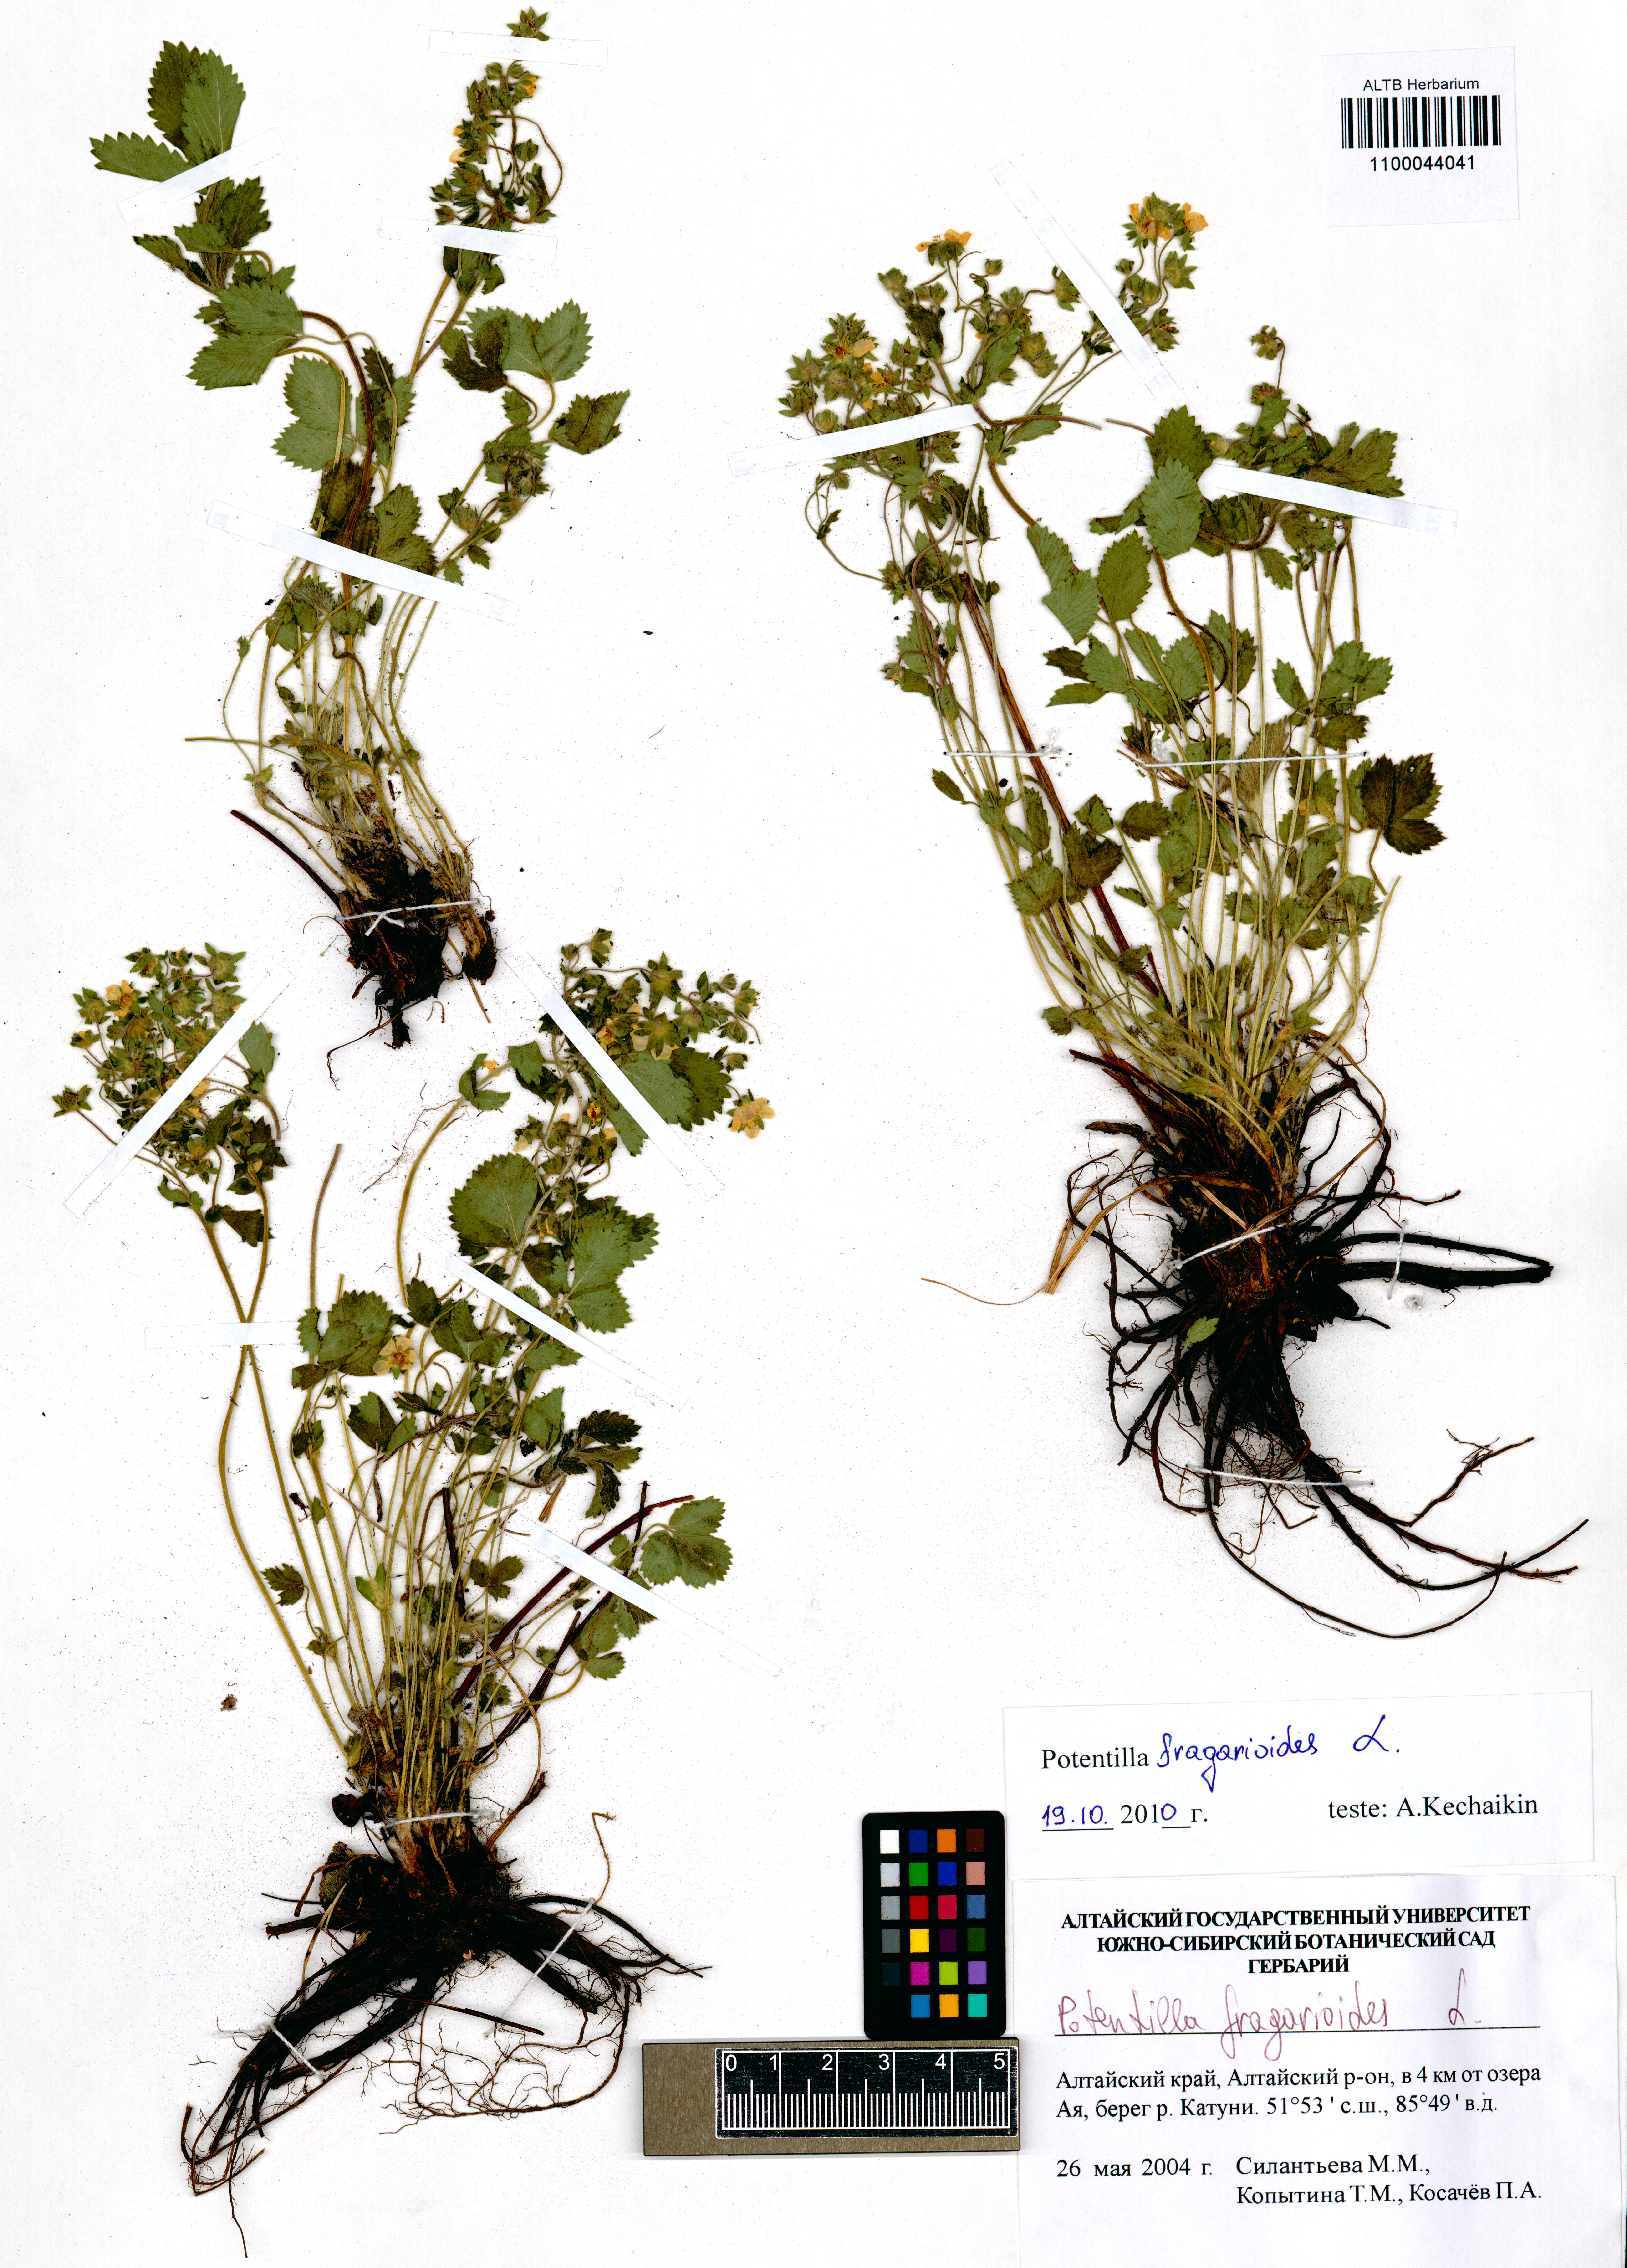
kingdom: Plantae
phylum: Tracheophyta
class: Magnoliopsida
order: Rosales
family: Rosaceae
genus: Potentilla
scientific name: Potentilla fragarioides
